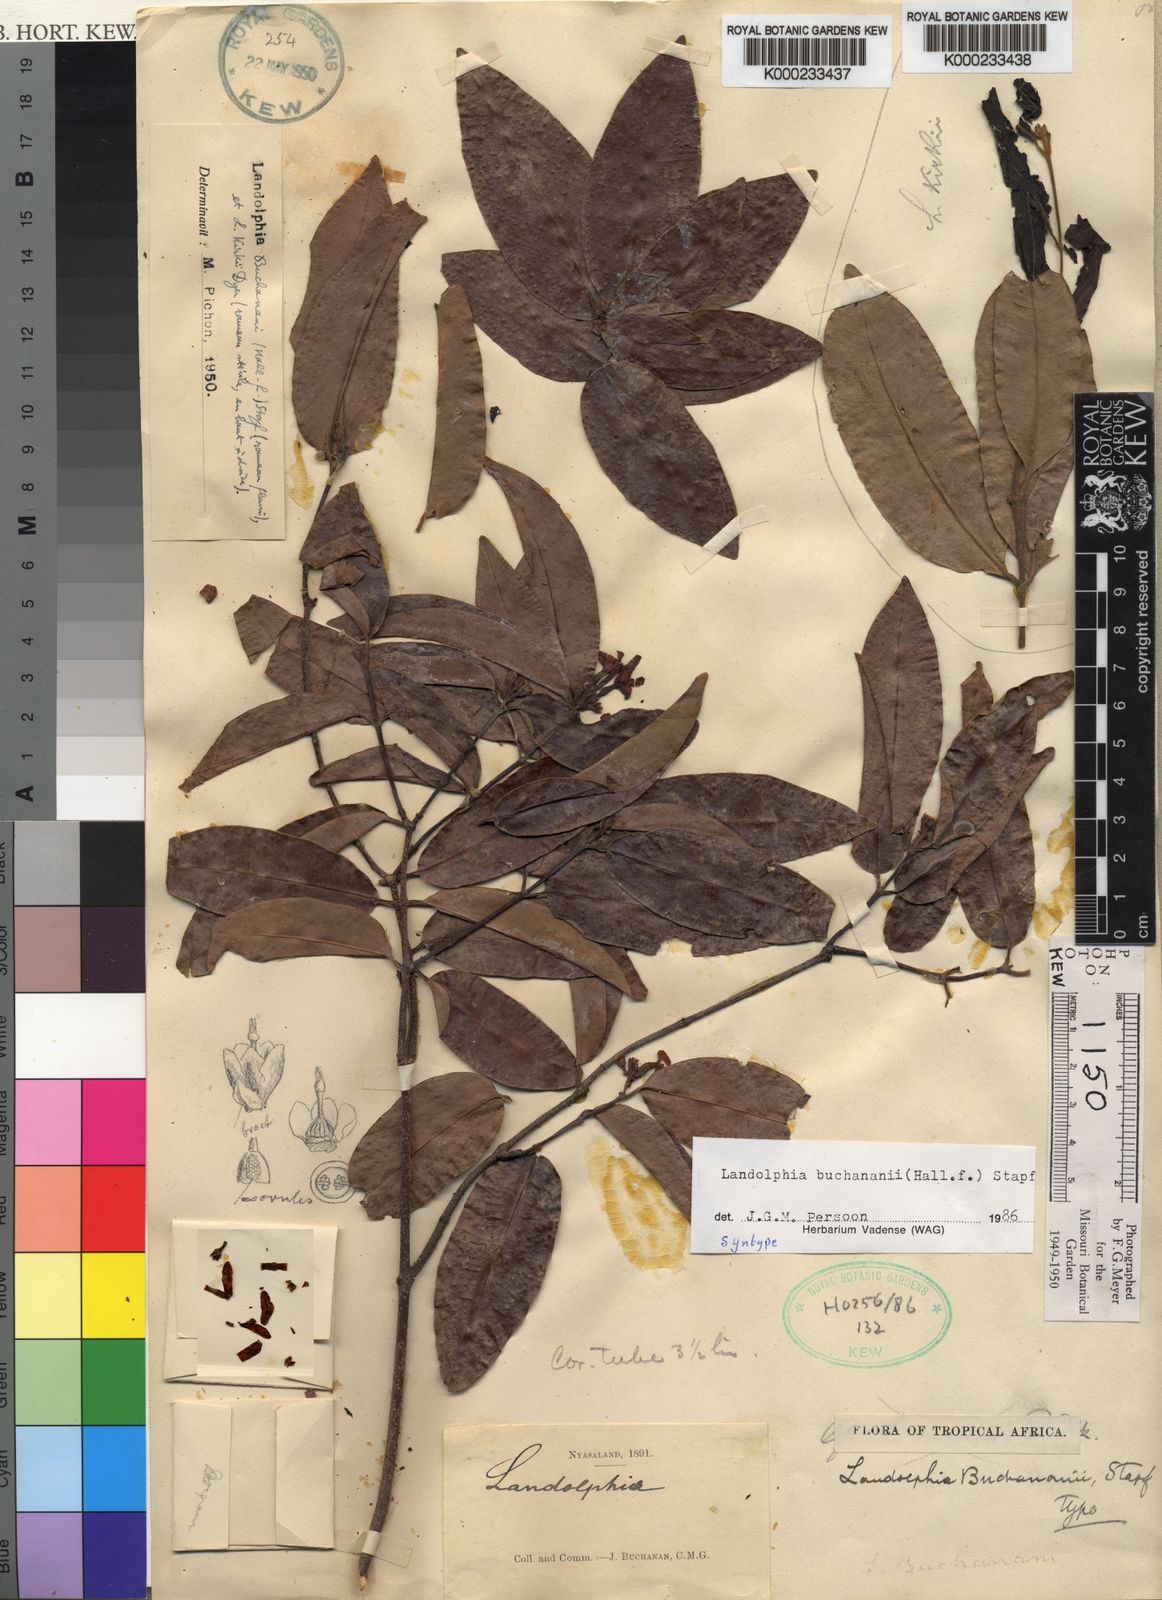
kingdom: Plantae
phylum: Tracheophyta
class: Magnoliopsida
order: Gentianales
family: Apocynaceae
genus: Landolphia
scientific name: Landolphia buchananii
